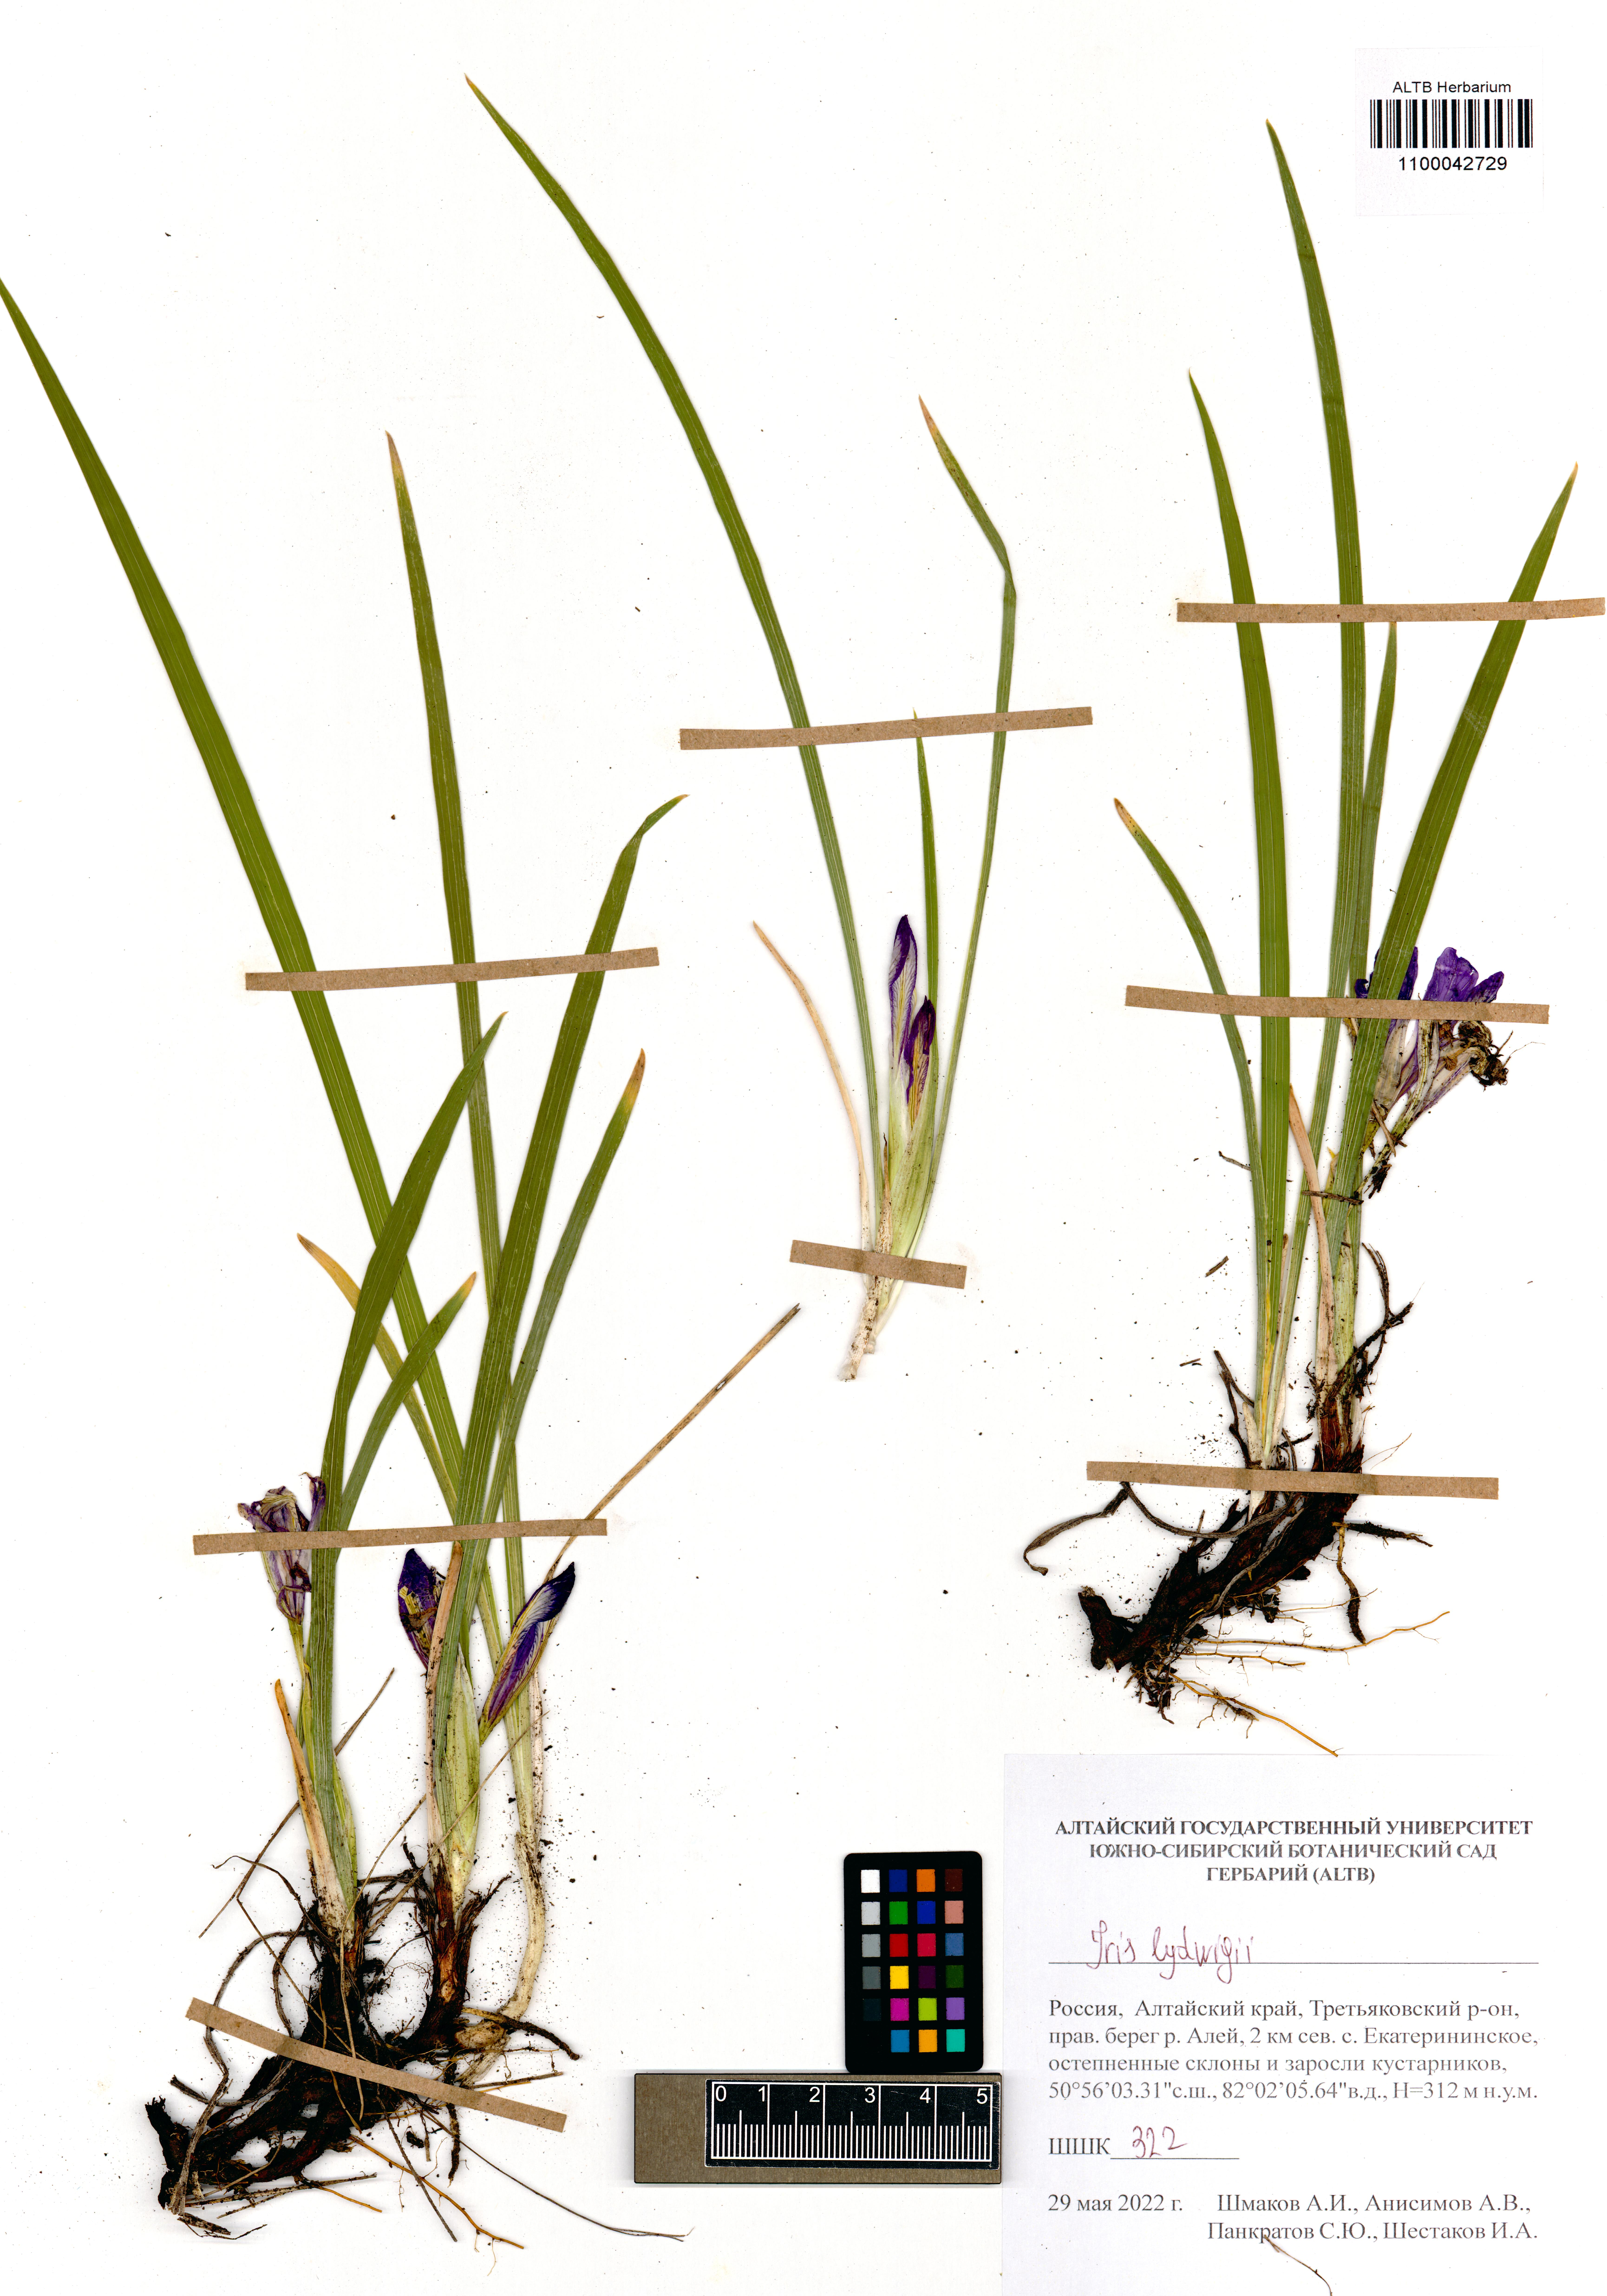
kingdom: Plantae
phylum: Tracheophyta
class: Liliopsida
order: Asparagales
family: Iridaceae
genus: Iris
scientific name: Iris ludwigii
